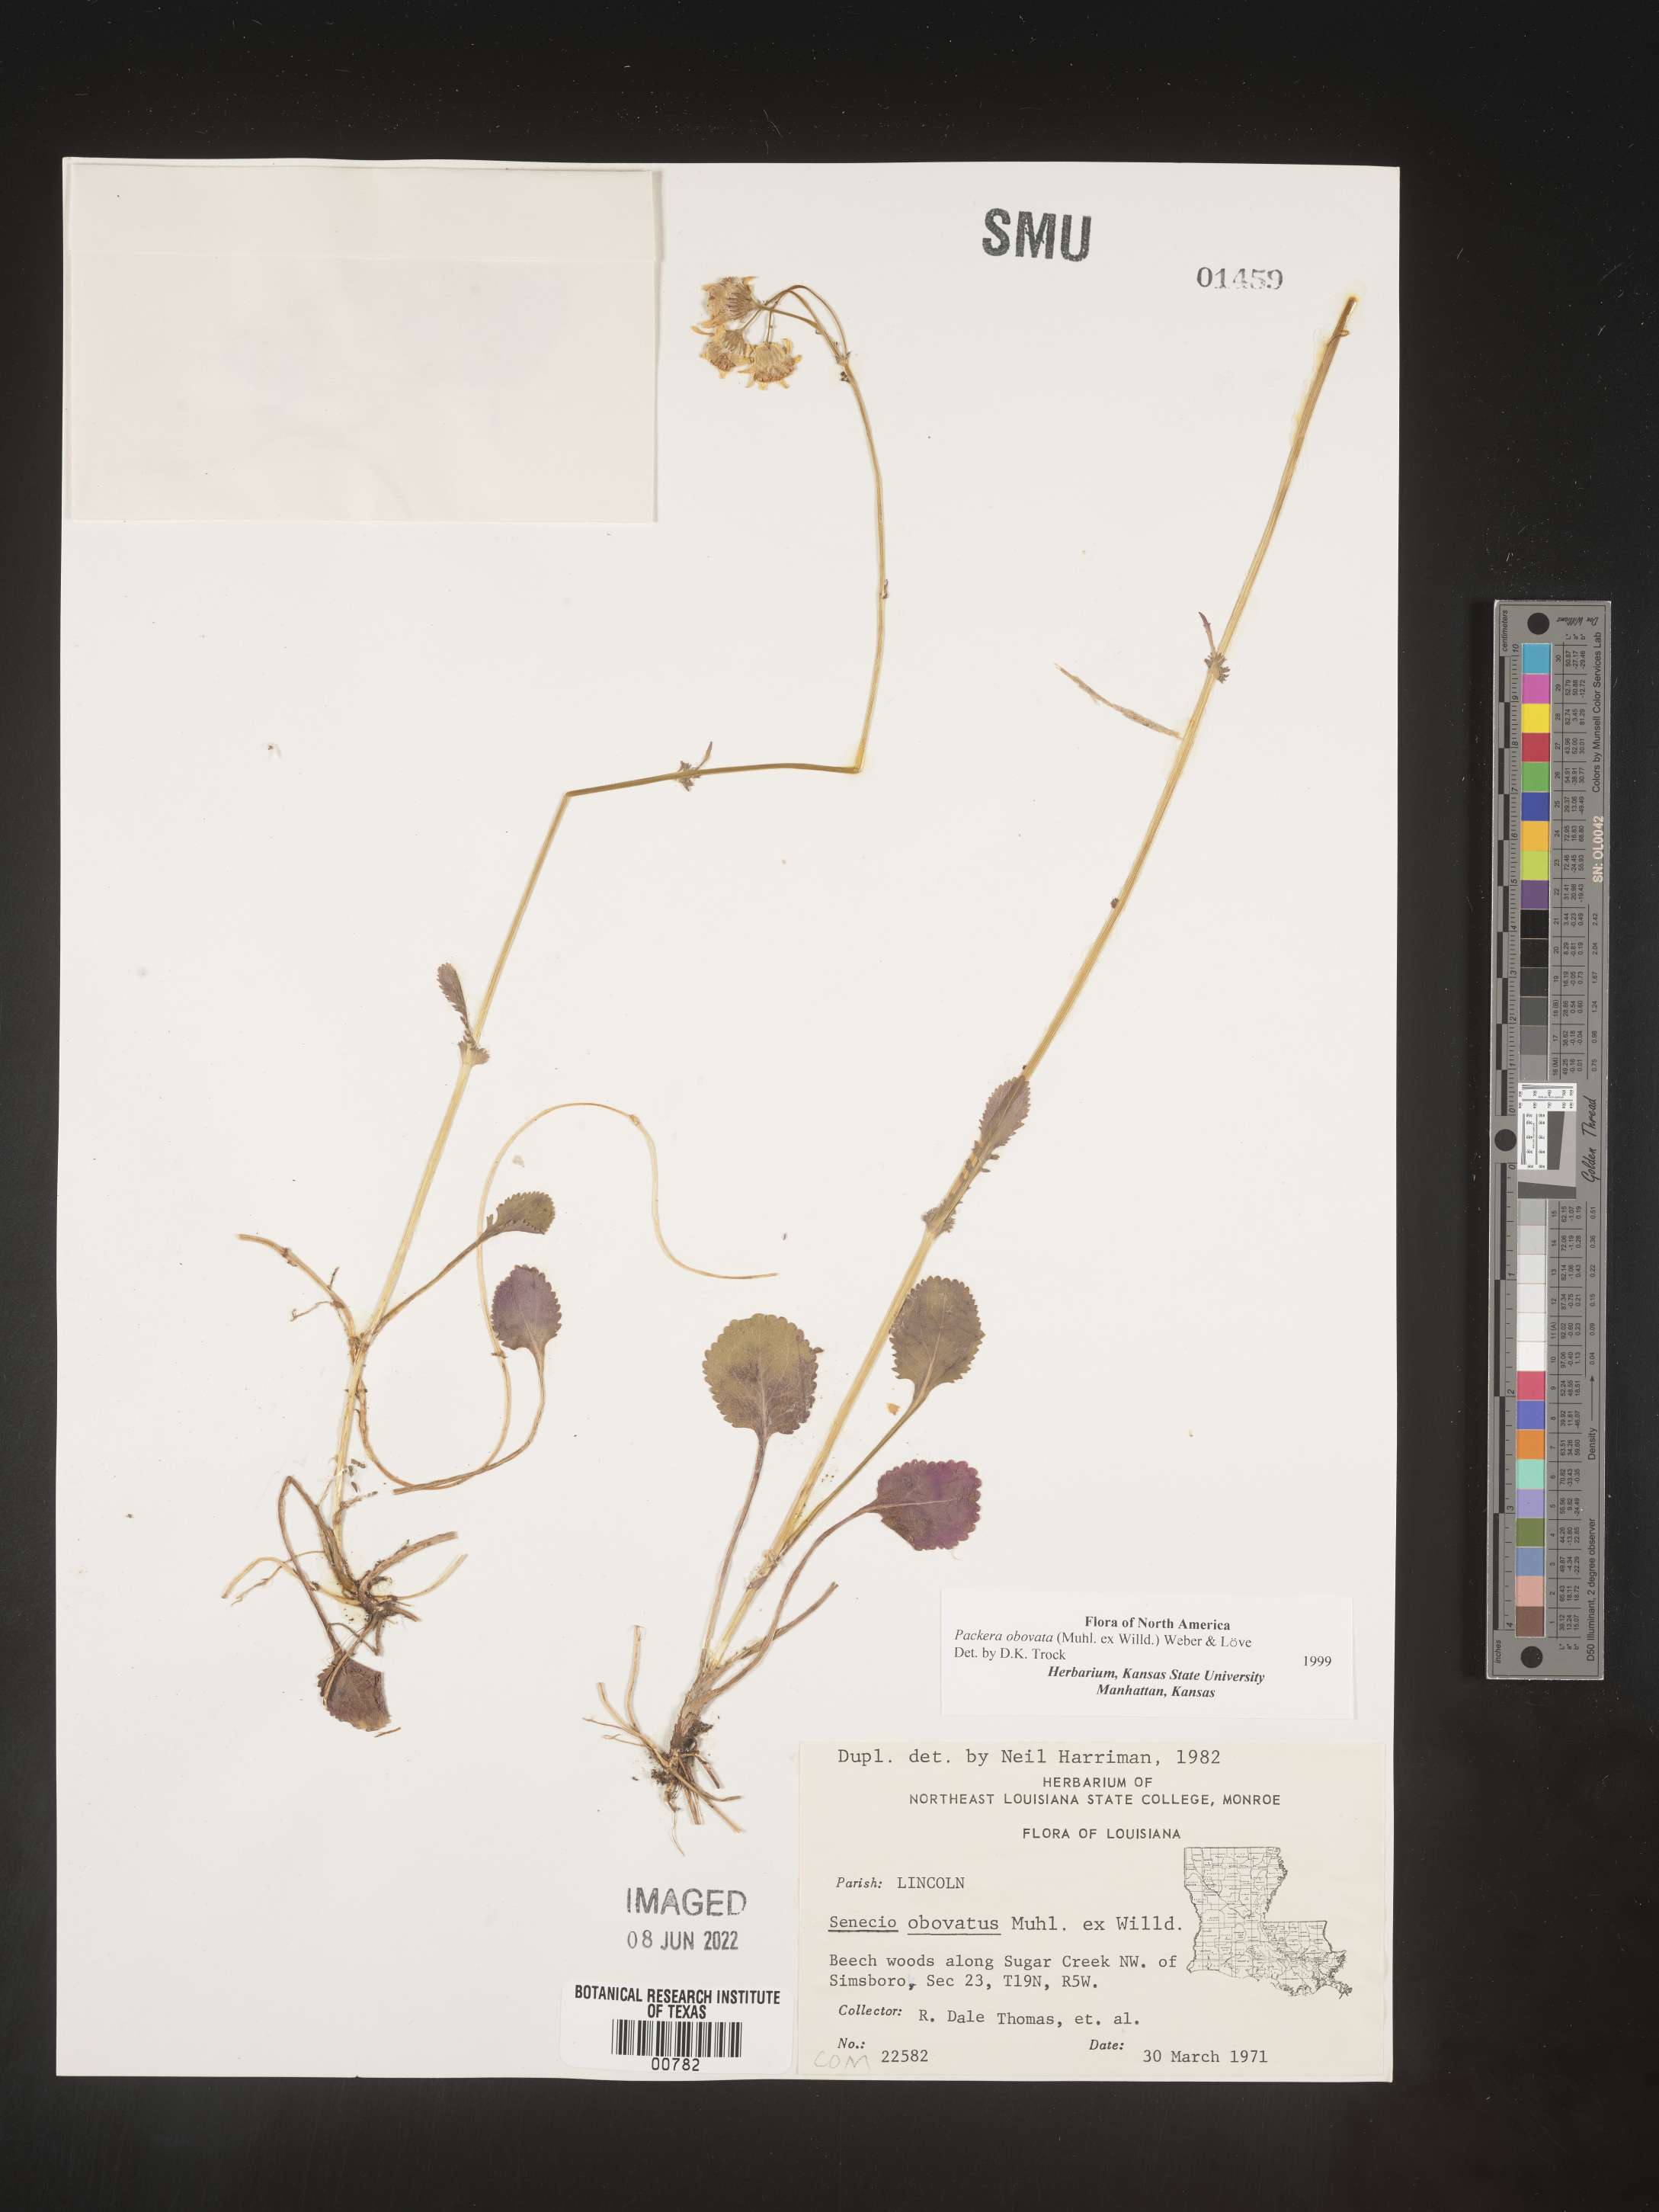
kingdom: Plantae
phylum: Tracheophyta
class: Magnoliopsida
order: Asterales
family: Asteraceae
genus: Packera
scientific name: Packera obovata
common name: Round-leaf ragwort
